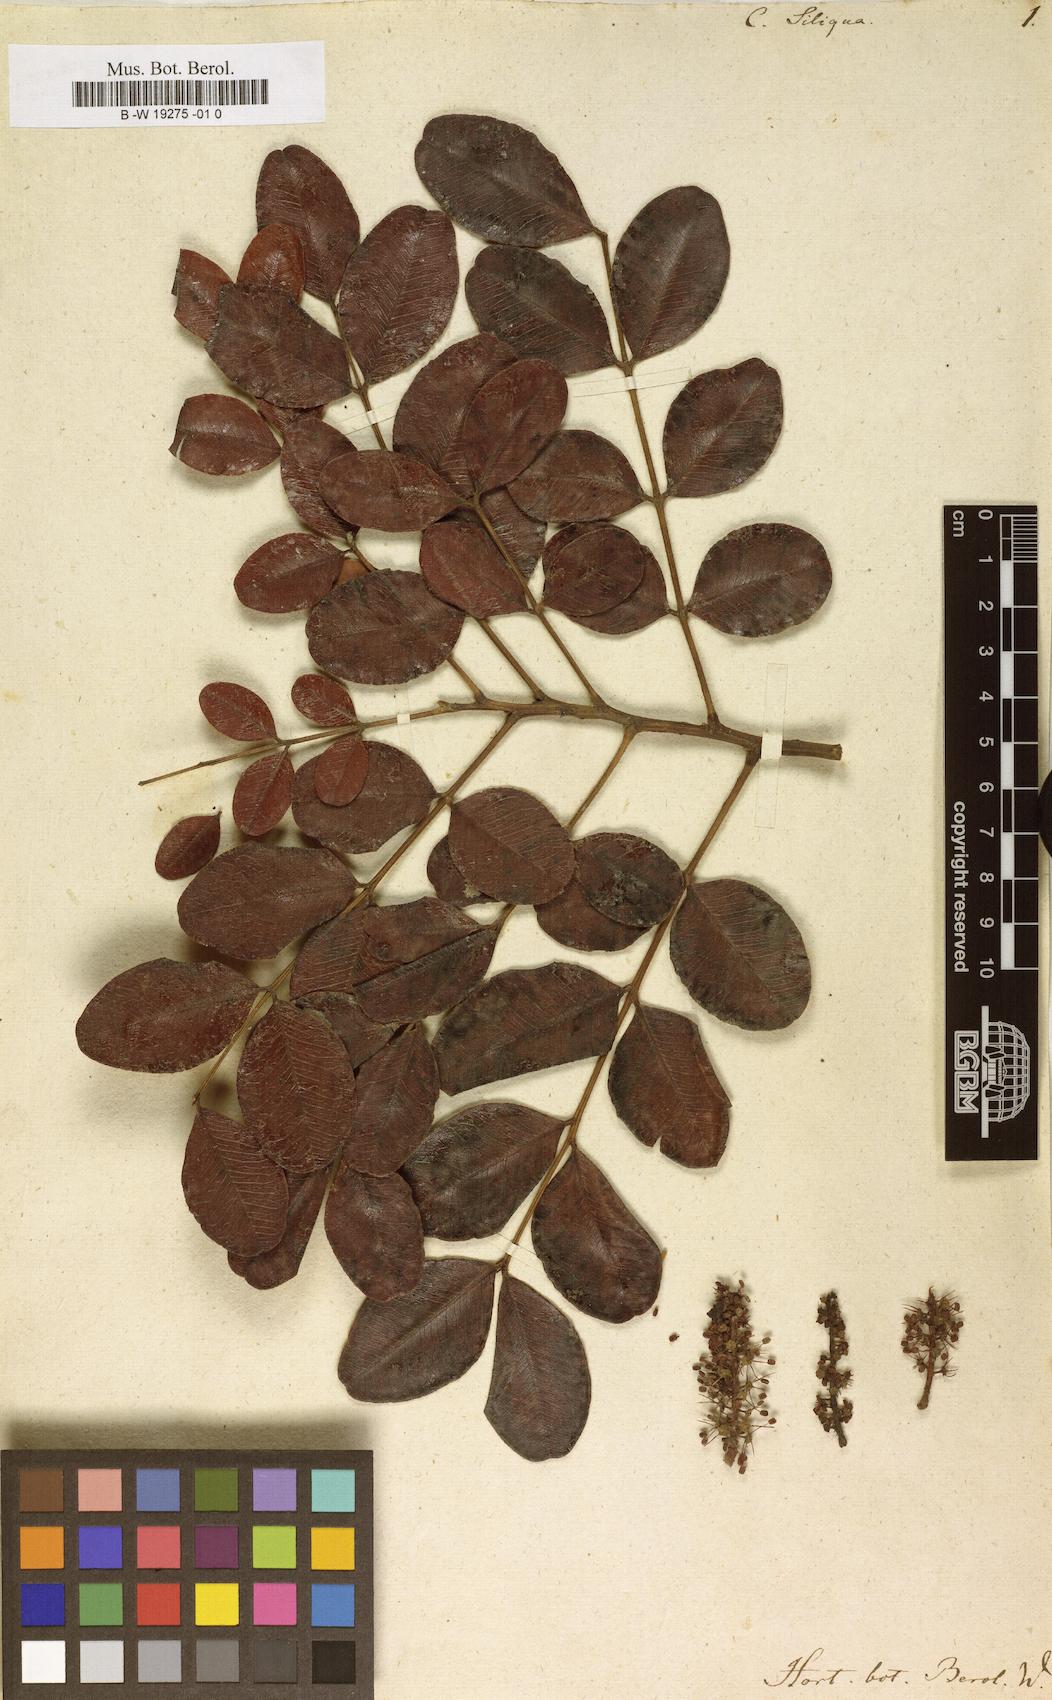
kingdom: Plantae
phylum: Tracheophyta
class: Magnoliopsida
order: Fabales
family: Fabaceae
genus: Ceratonia
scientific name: Ceratonia siliqua
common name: Carob
